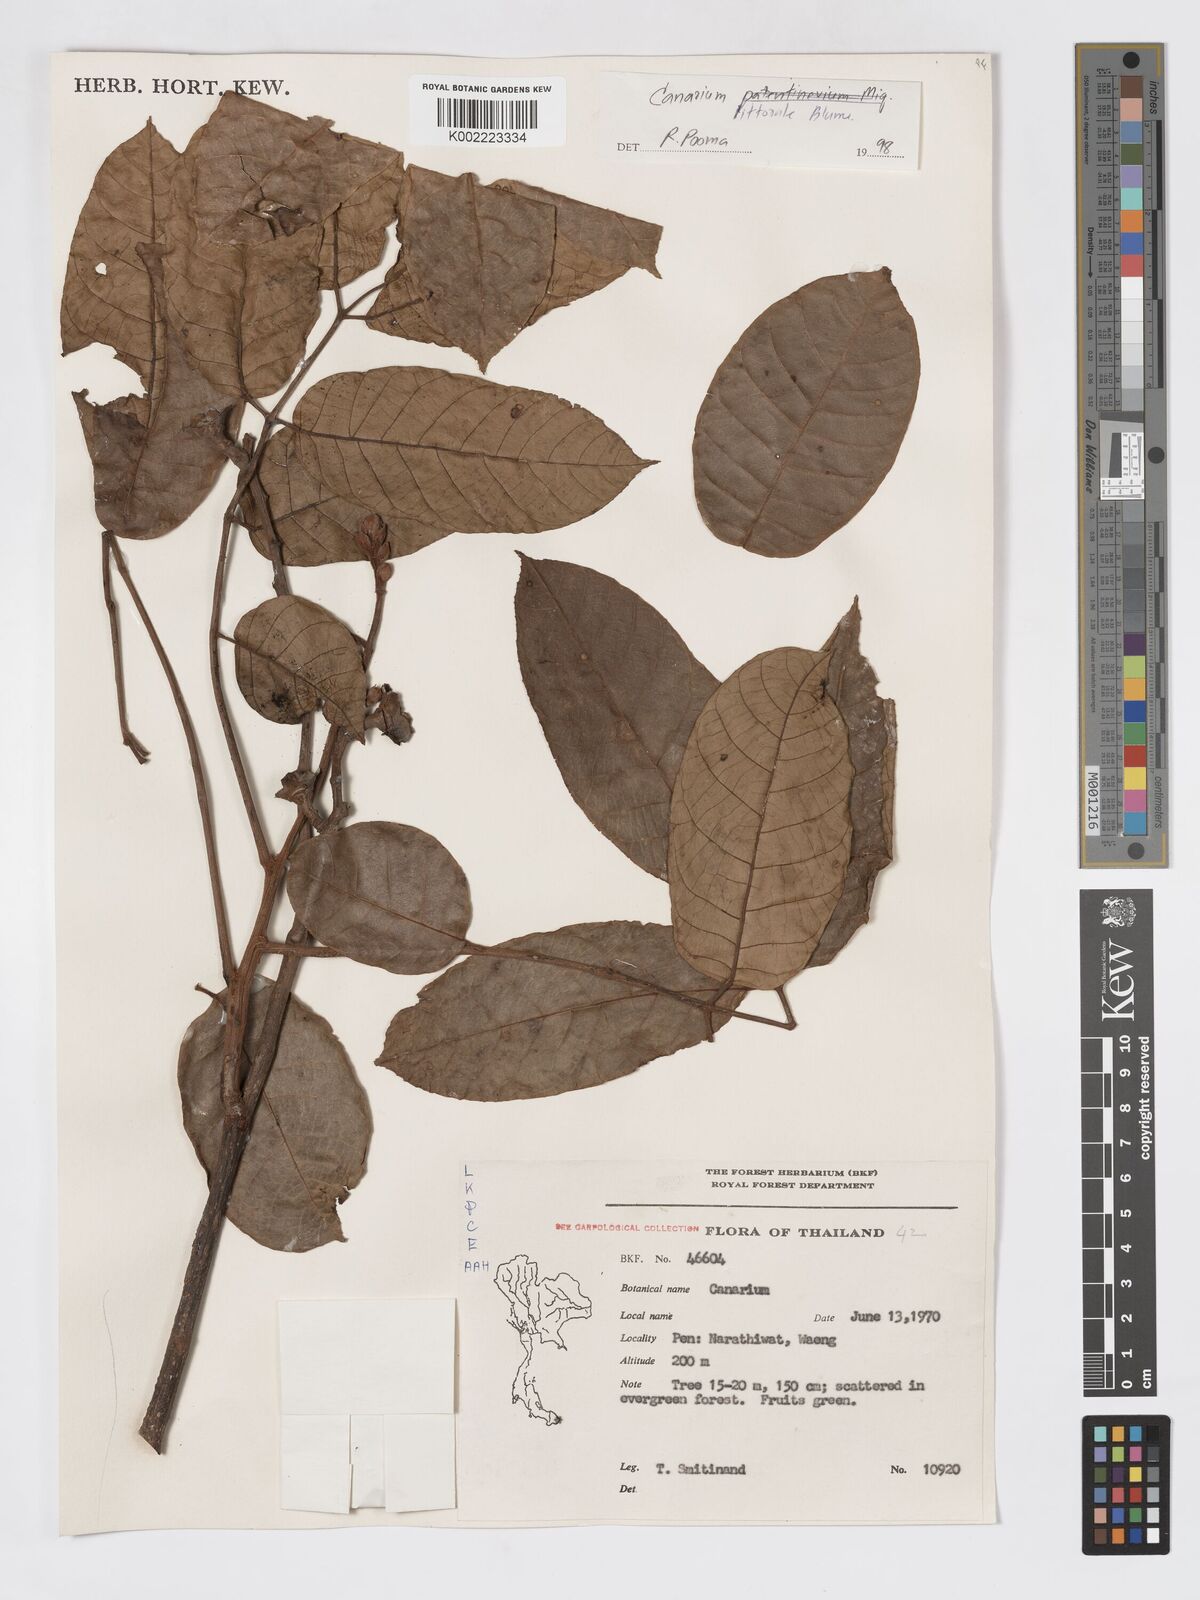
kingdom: Plantae
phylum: Tracheophyta
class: Magnoliopsida
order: Sapindales
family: Burseraceae
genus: Canarium
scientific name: Canarium
